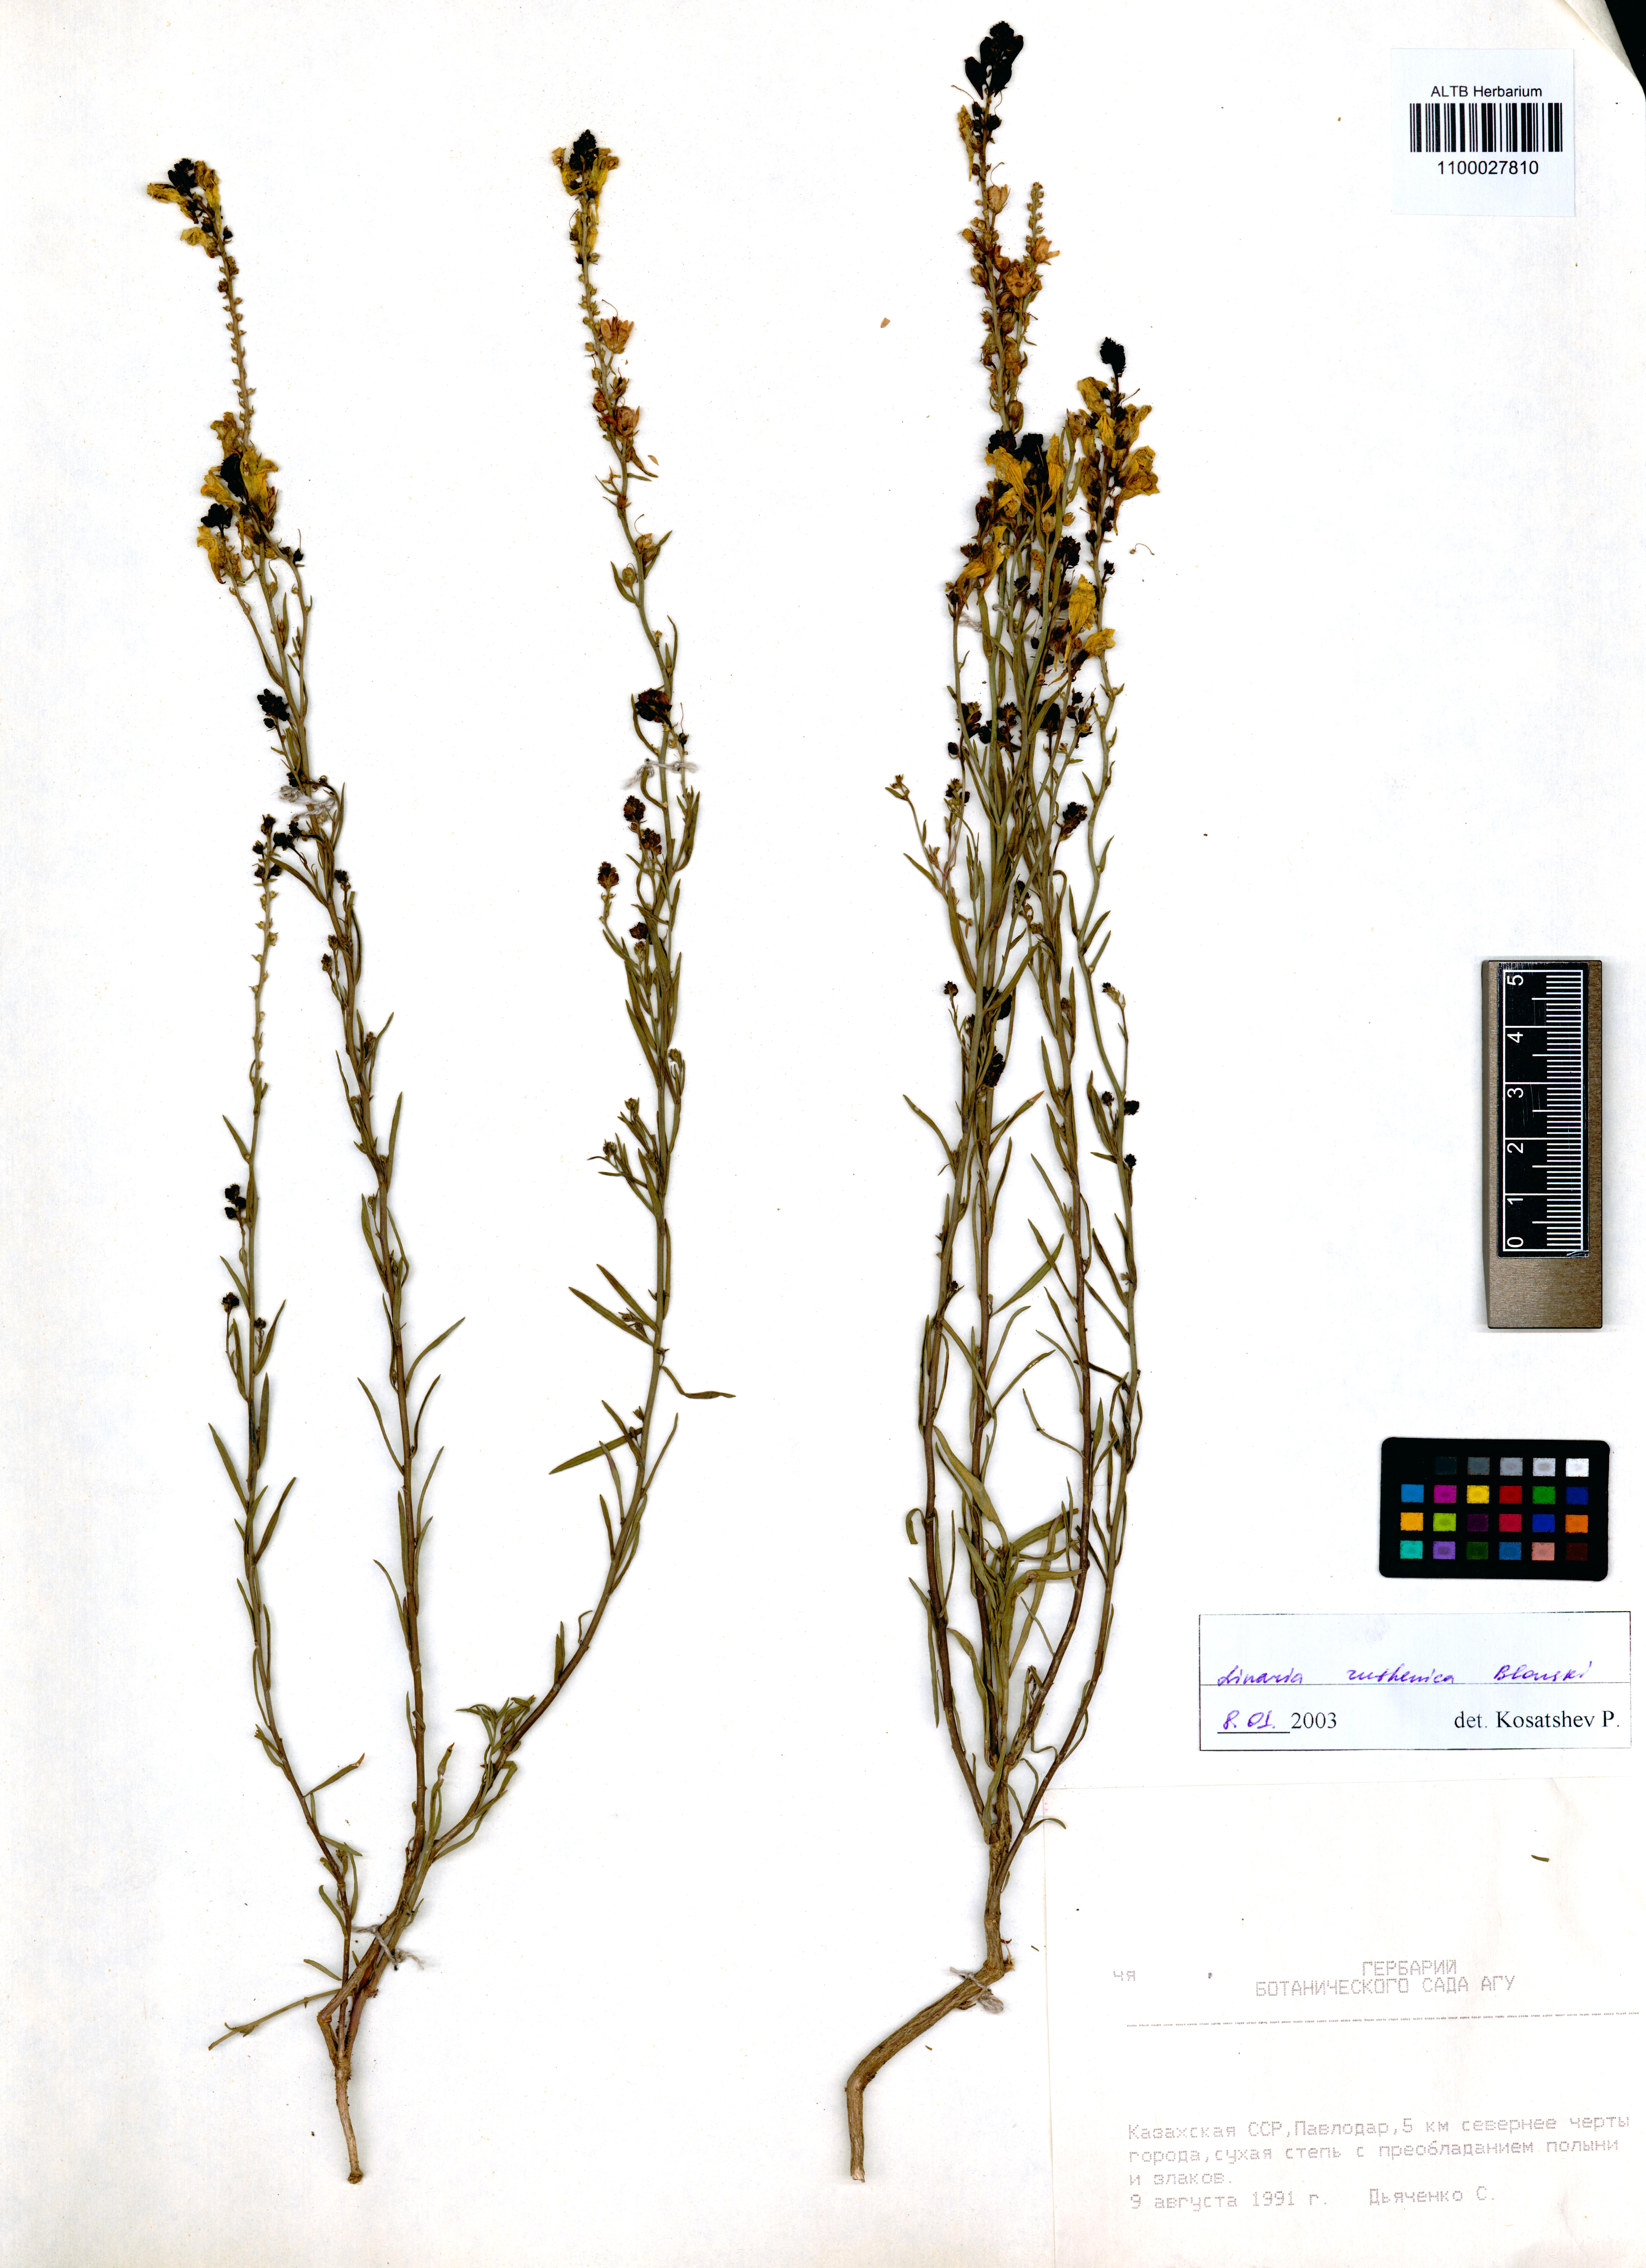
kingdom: Plantae
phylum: Tracheophyta
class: Magnoliopsida
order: Lamiales
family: Plantaginaceae
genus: Linaria
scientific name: Linaria biebersteinii
